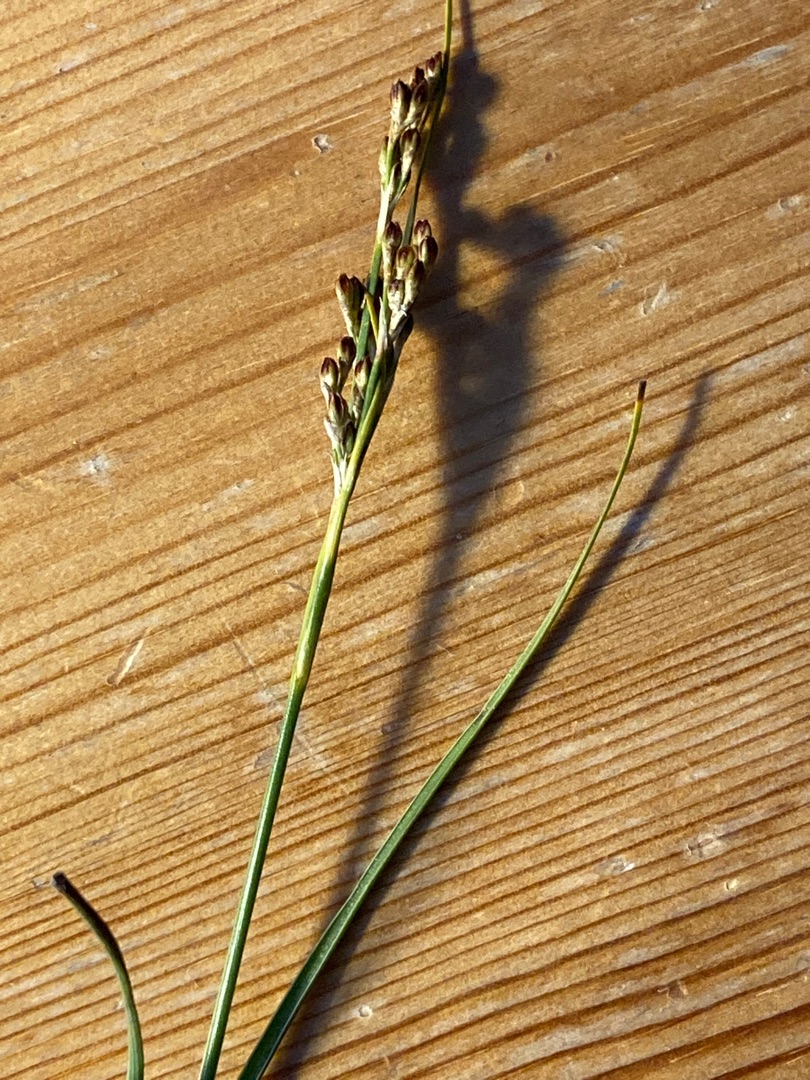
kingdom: Plantae
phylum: Tracheophyta
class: Liliopsida
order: Poales
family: Juncaceae
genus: Juncus
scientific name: Juncus gerardi
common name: Harril
